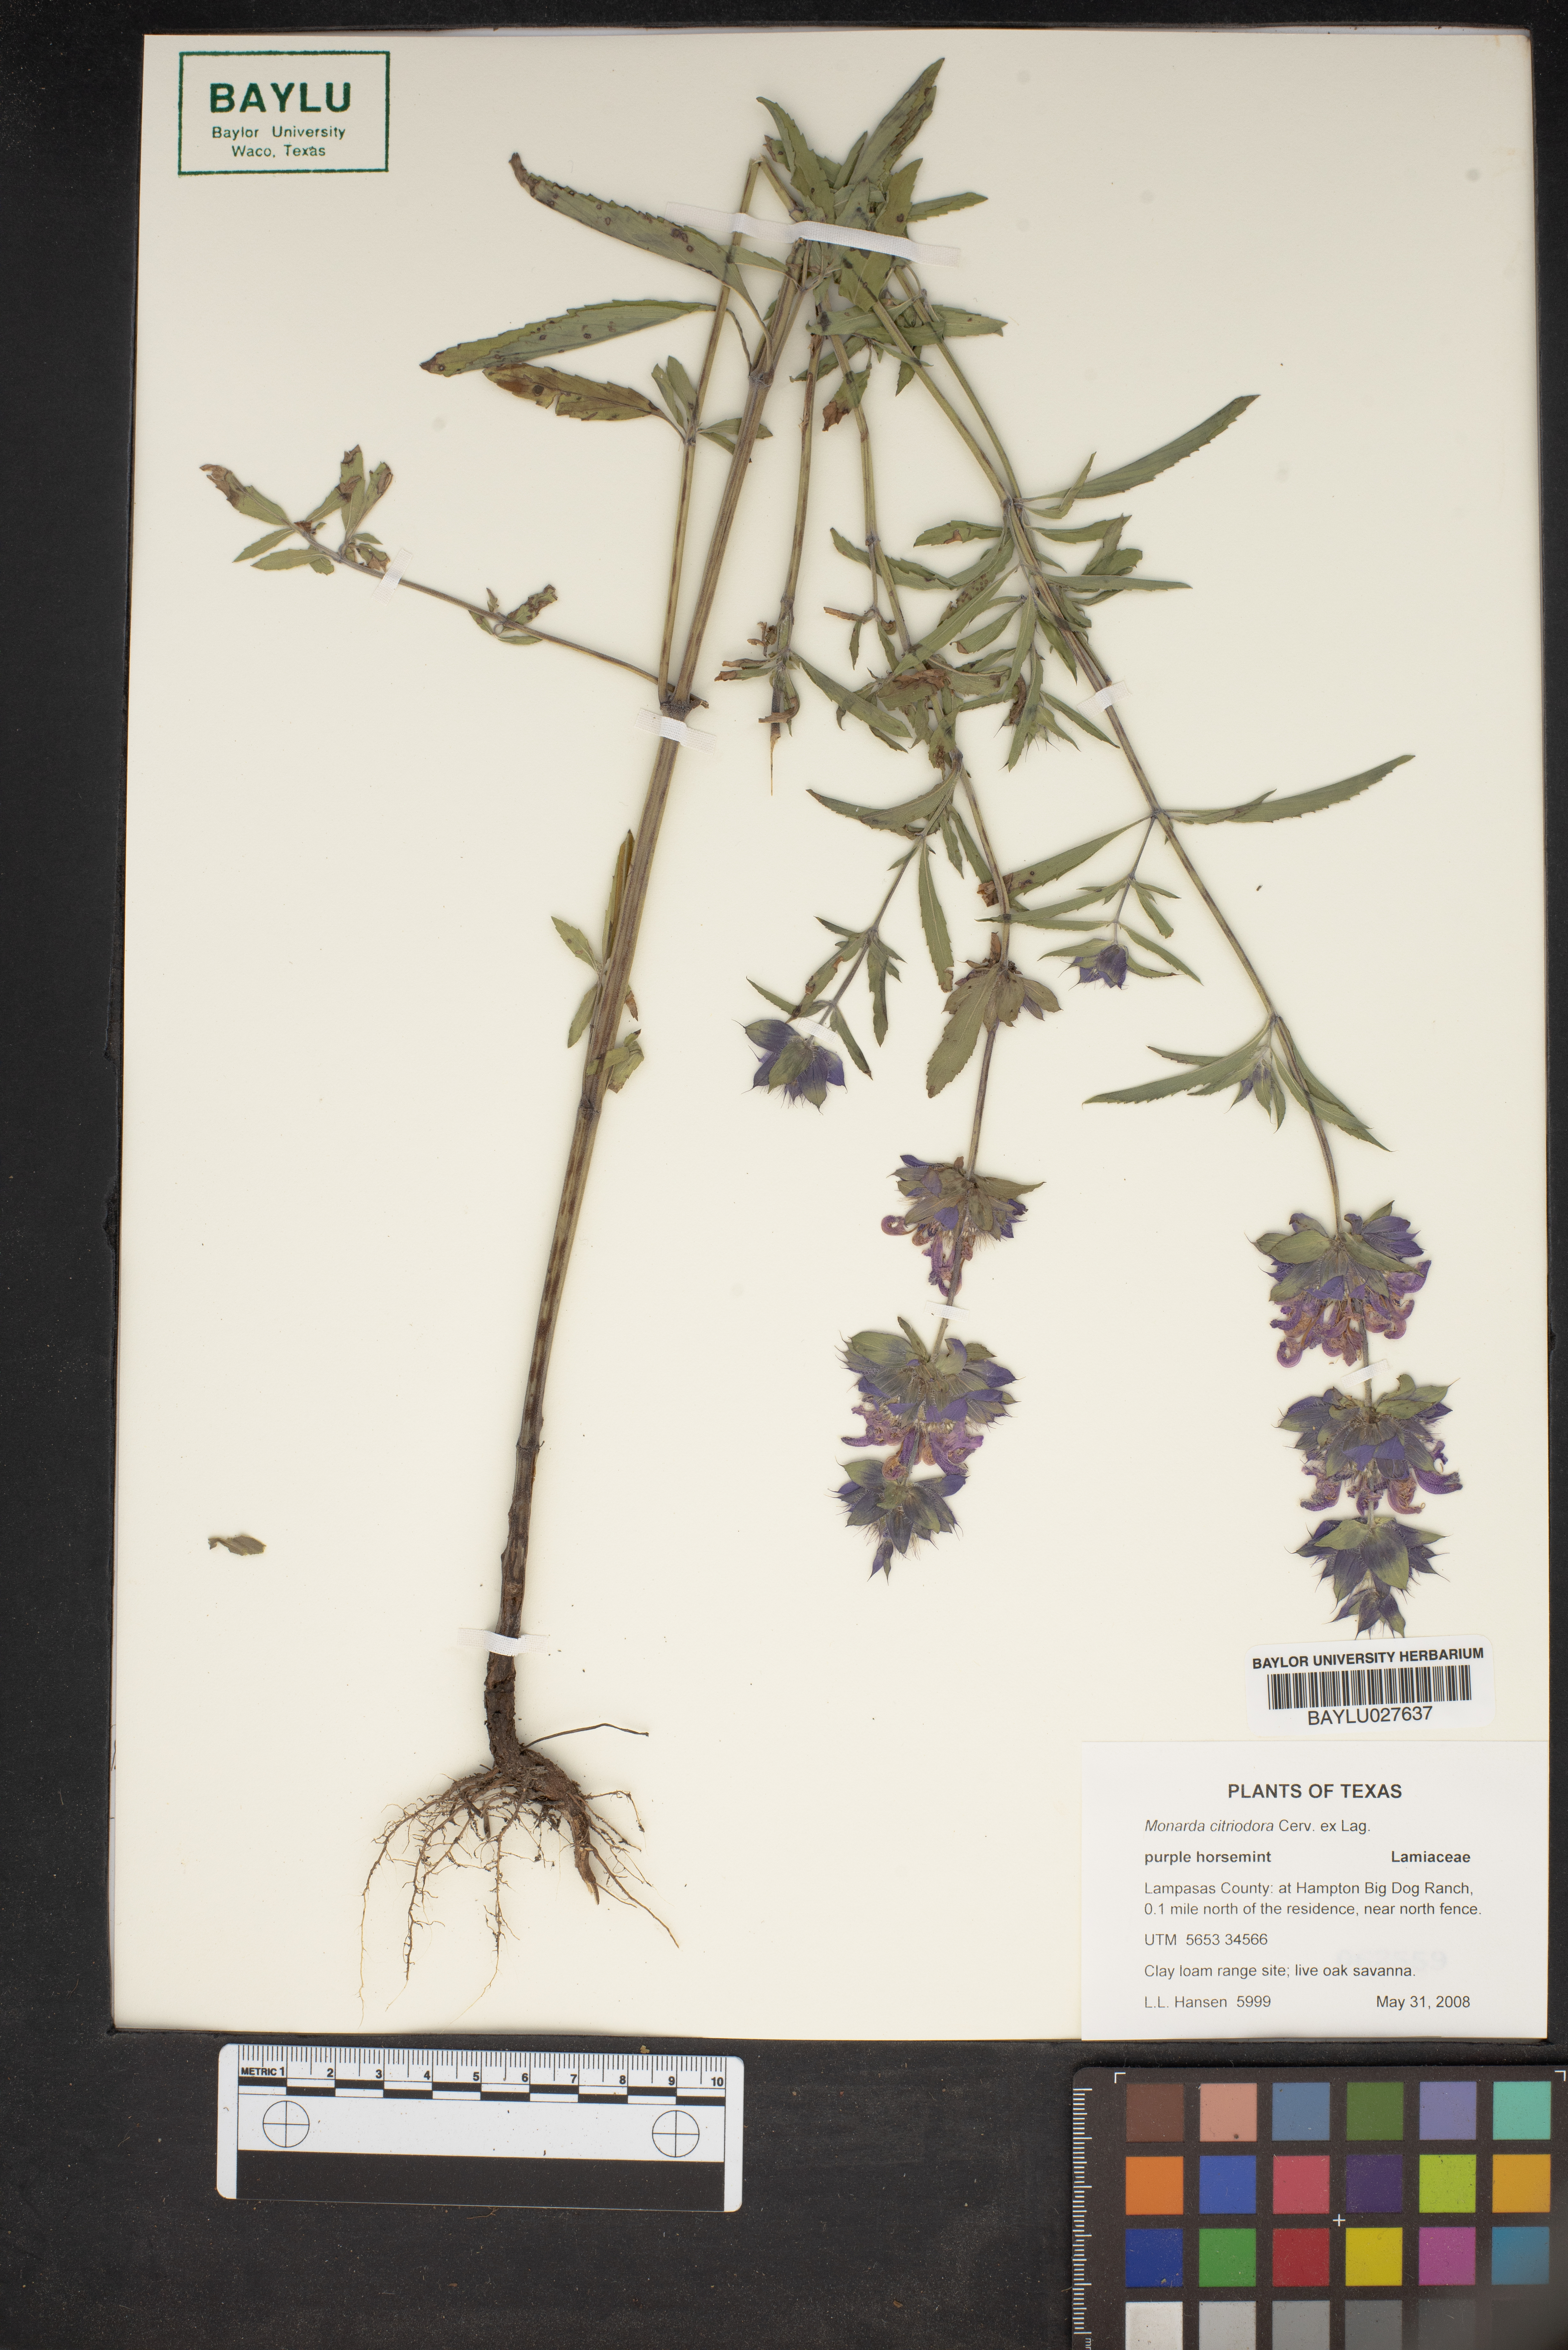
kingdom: Plantae
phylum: Tracheophyta
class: Magnoliopsida
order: Lamiales
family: Lamiaceae
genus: Monarda
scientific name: Monarda citriodora
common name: Lemon beebalm
